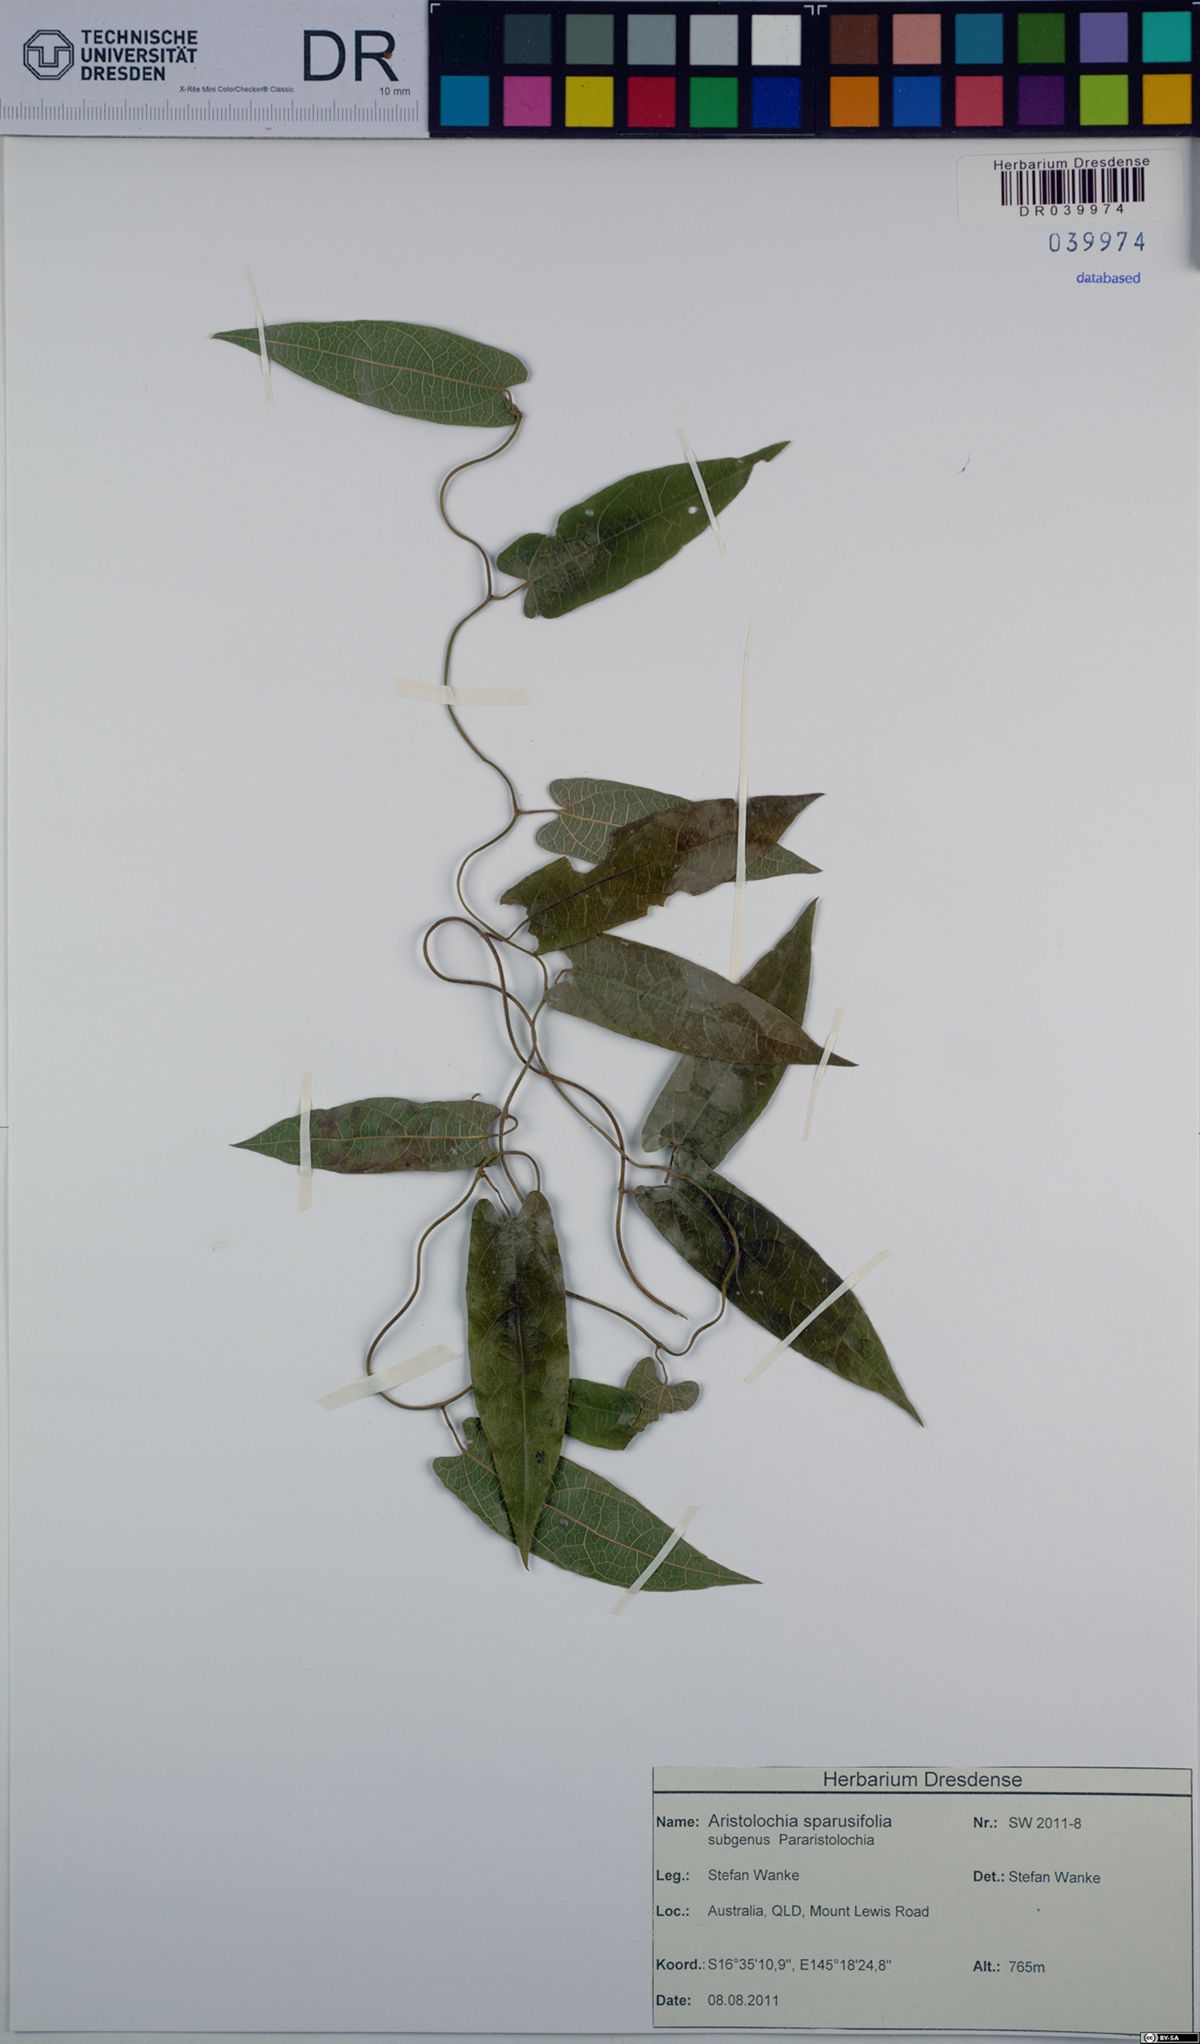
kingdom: Plantae
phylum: Tracheophyta
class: Magnoliopsida
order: Piperales
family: Aristolochiaceae
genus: Aristolochia
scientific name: Aristolochia sparusifolia
